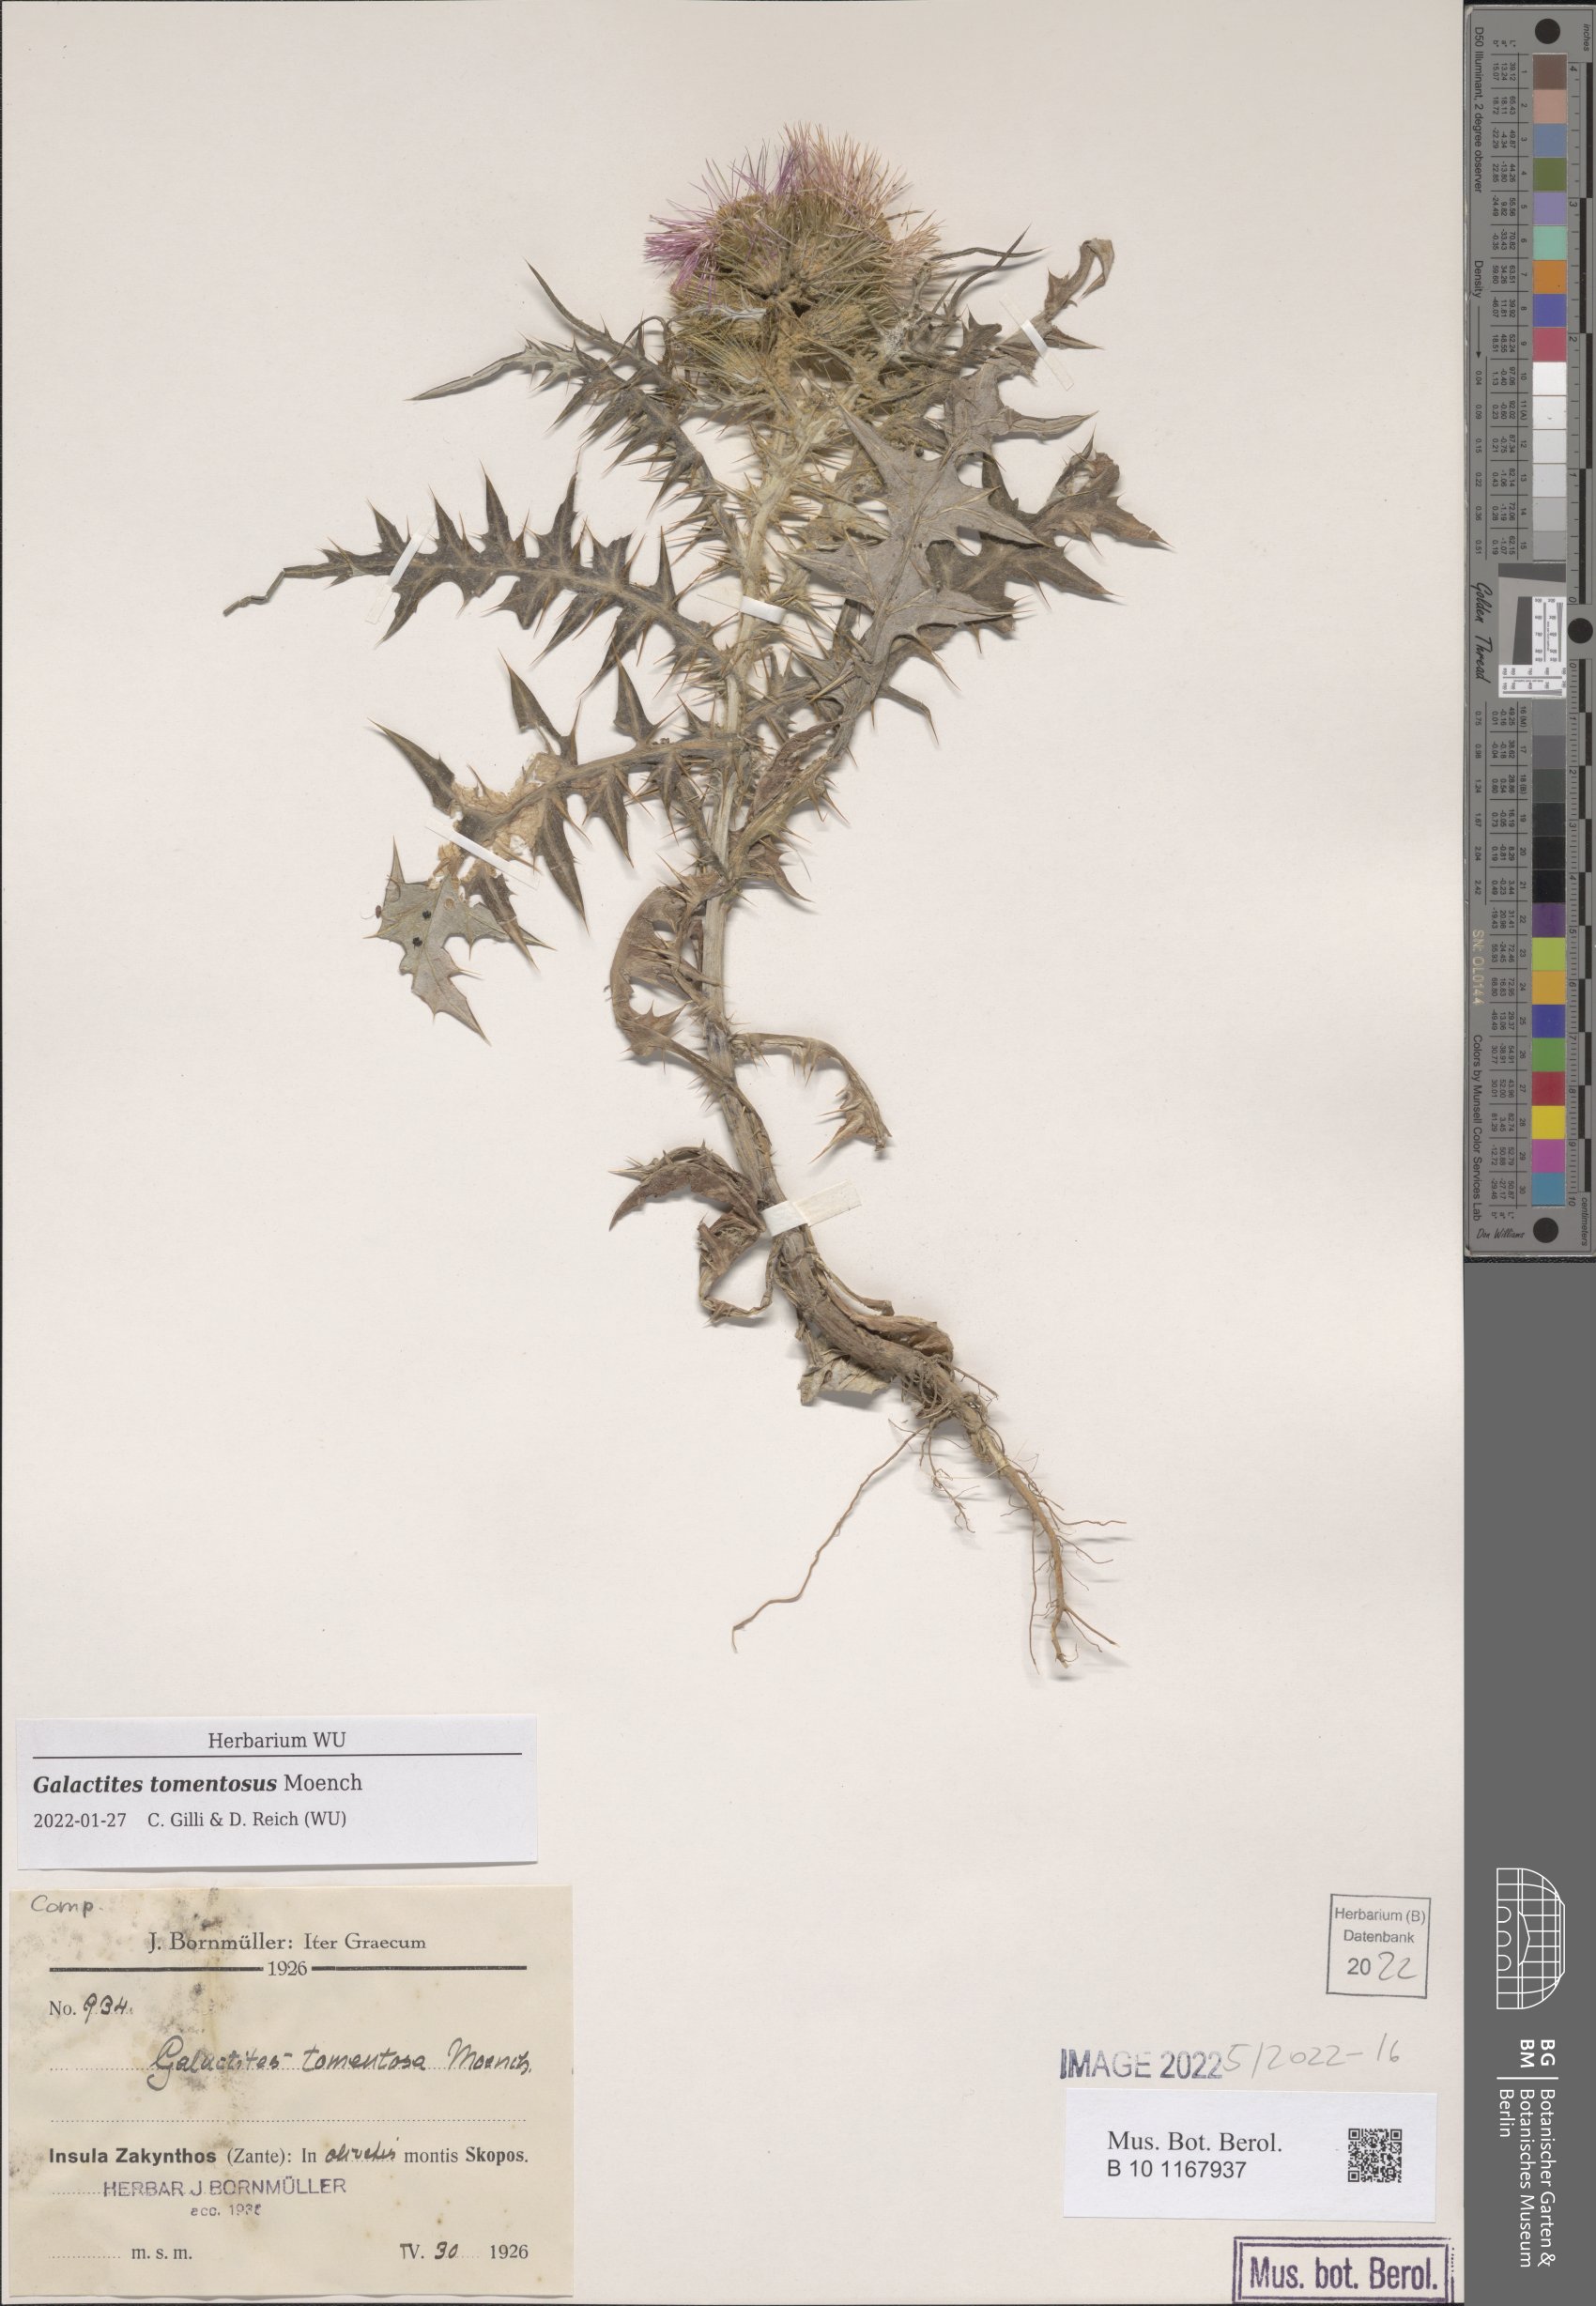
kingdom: Plantae
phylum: Tracheophyta
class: Magnoliopsida
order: Asterales
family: Asteraceae
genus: Galactites
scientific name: Galactites tomentosa
